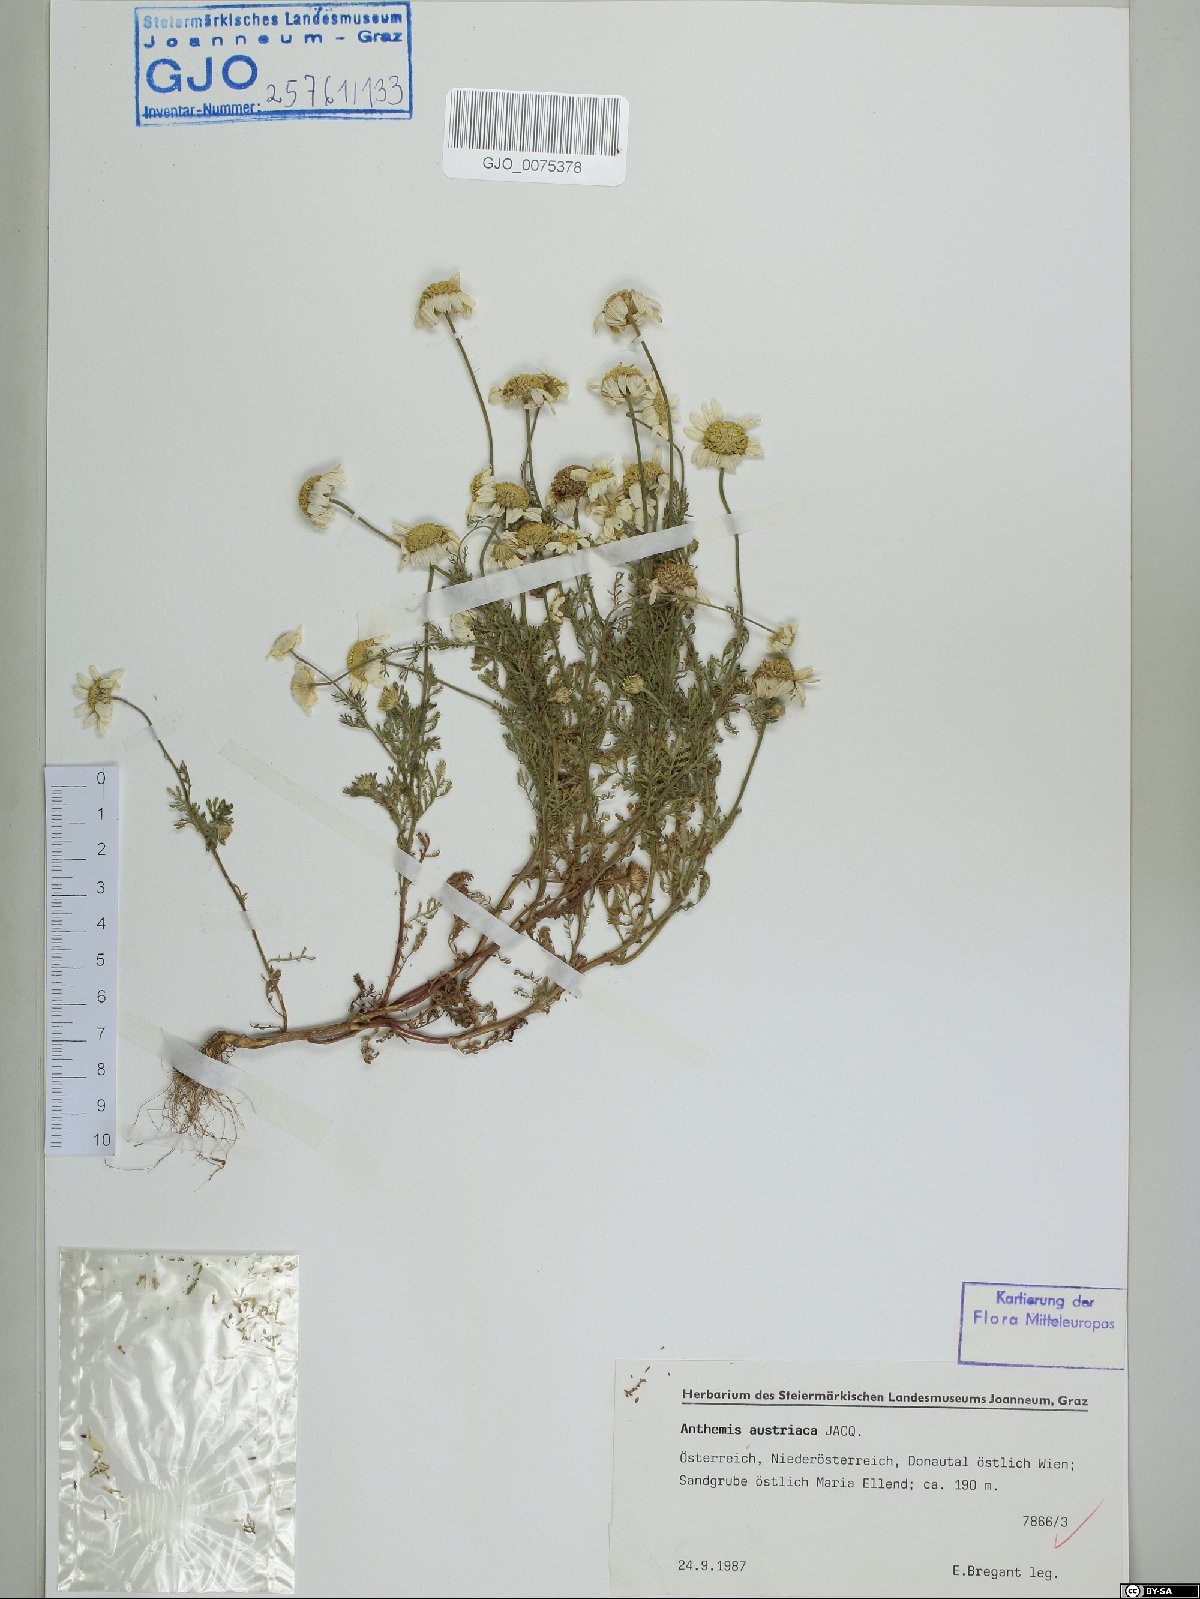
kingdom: Plantae
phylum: Tracheophyta
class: Magnoliopsida
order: Asterales
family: Asteraceae
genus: Cota
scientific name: Cota austriaca
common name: Austrian chamomile
